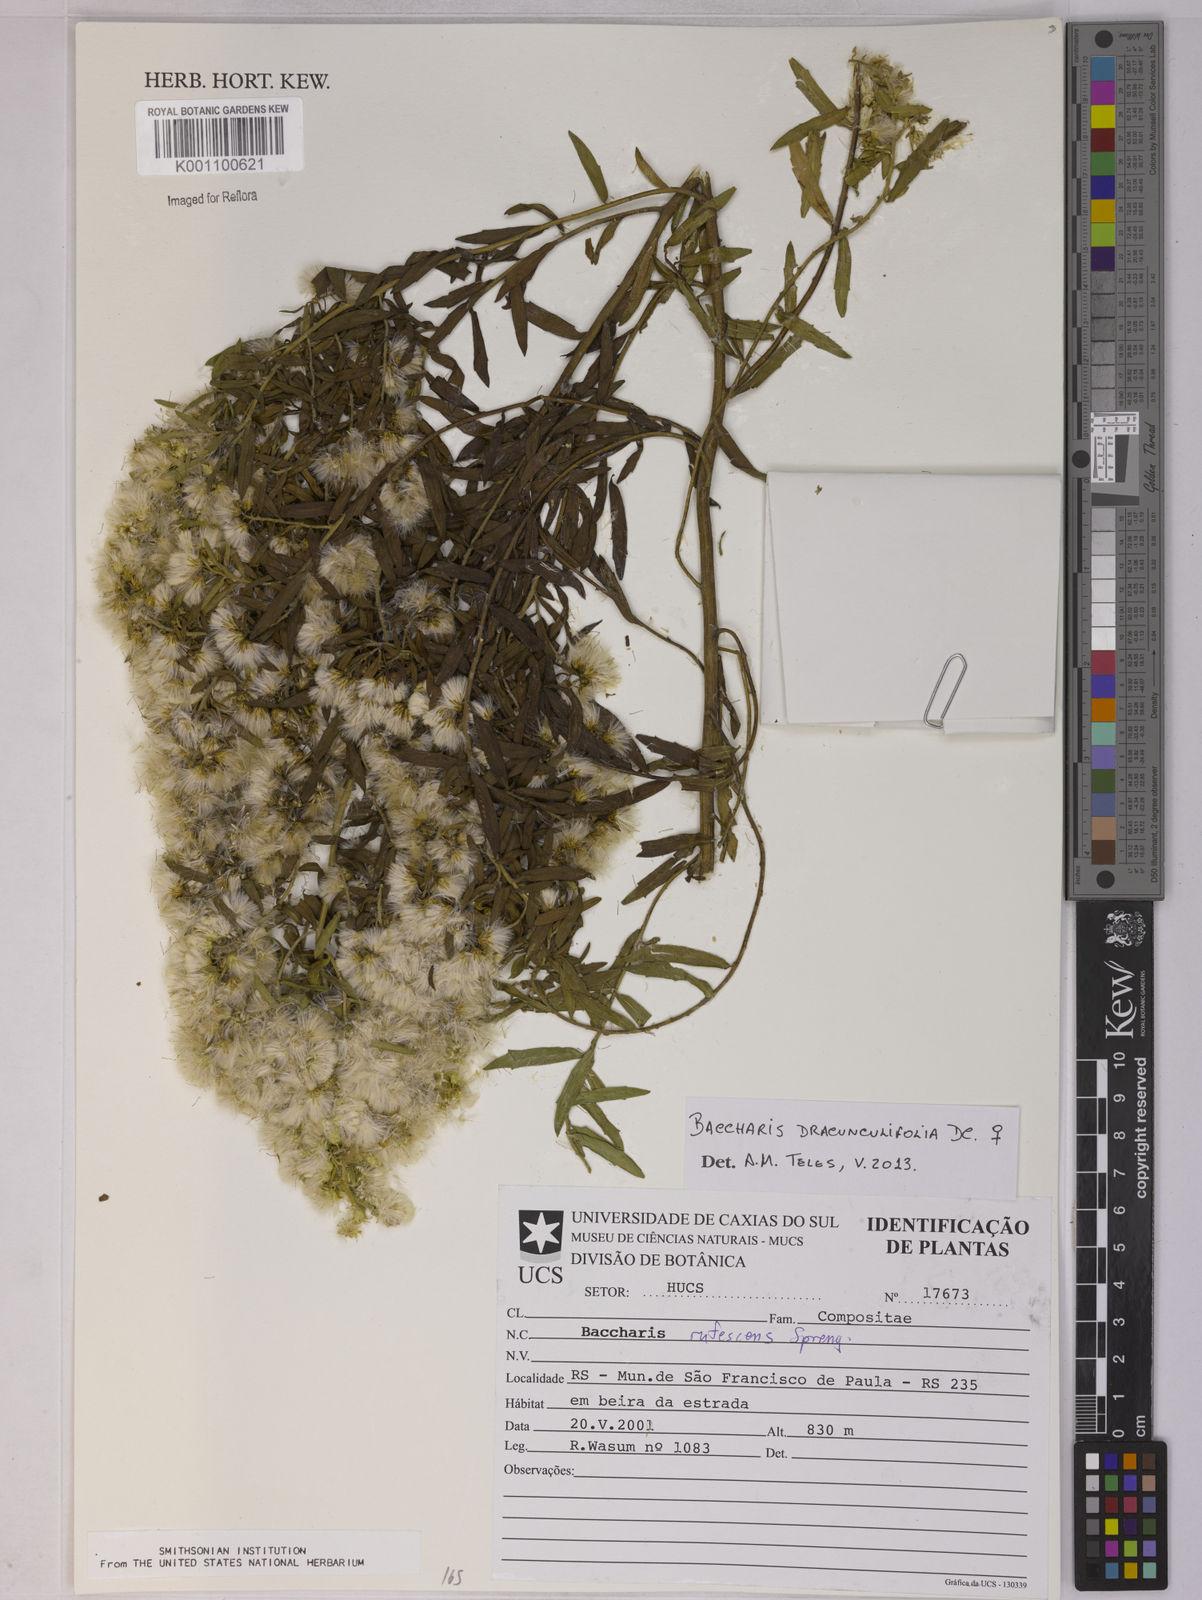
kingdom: Plantae
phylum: Tracheophyta
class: Magnoliopsida
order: Asterales
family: Asteraceae
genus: Baccharis
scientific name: Baccharis dracunculifolia
